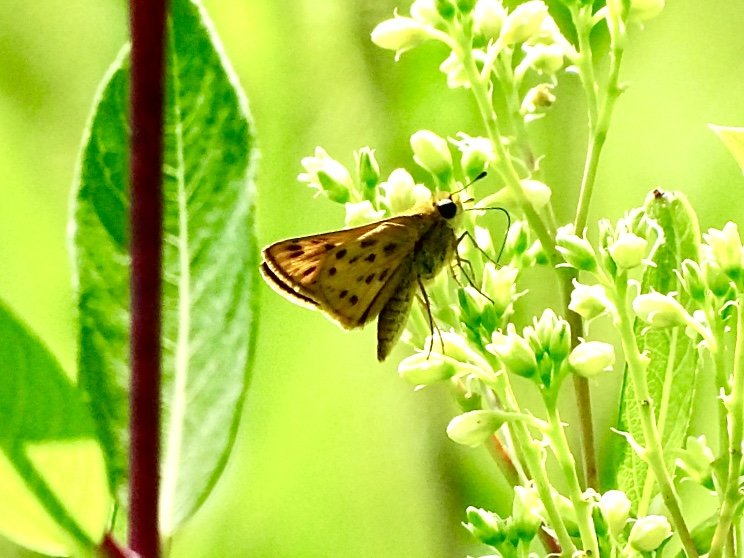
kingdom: Animalia
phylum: Arthropoda
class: Insecta
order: Lepidoptera
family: Hesperiidae
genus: Hylephila
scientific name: Hylephila phyleus
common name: Fiery Skipper
